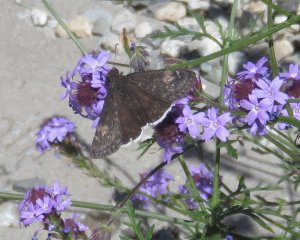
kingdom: Animalia
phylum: Arthropoda
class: Insecta
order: Lepidoptera
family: Hesperiidae
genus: Erynnis
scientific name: Erynnis funeralis
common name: Funereal Duskywing
